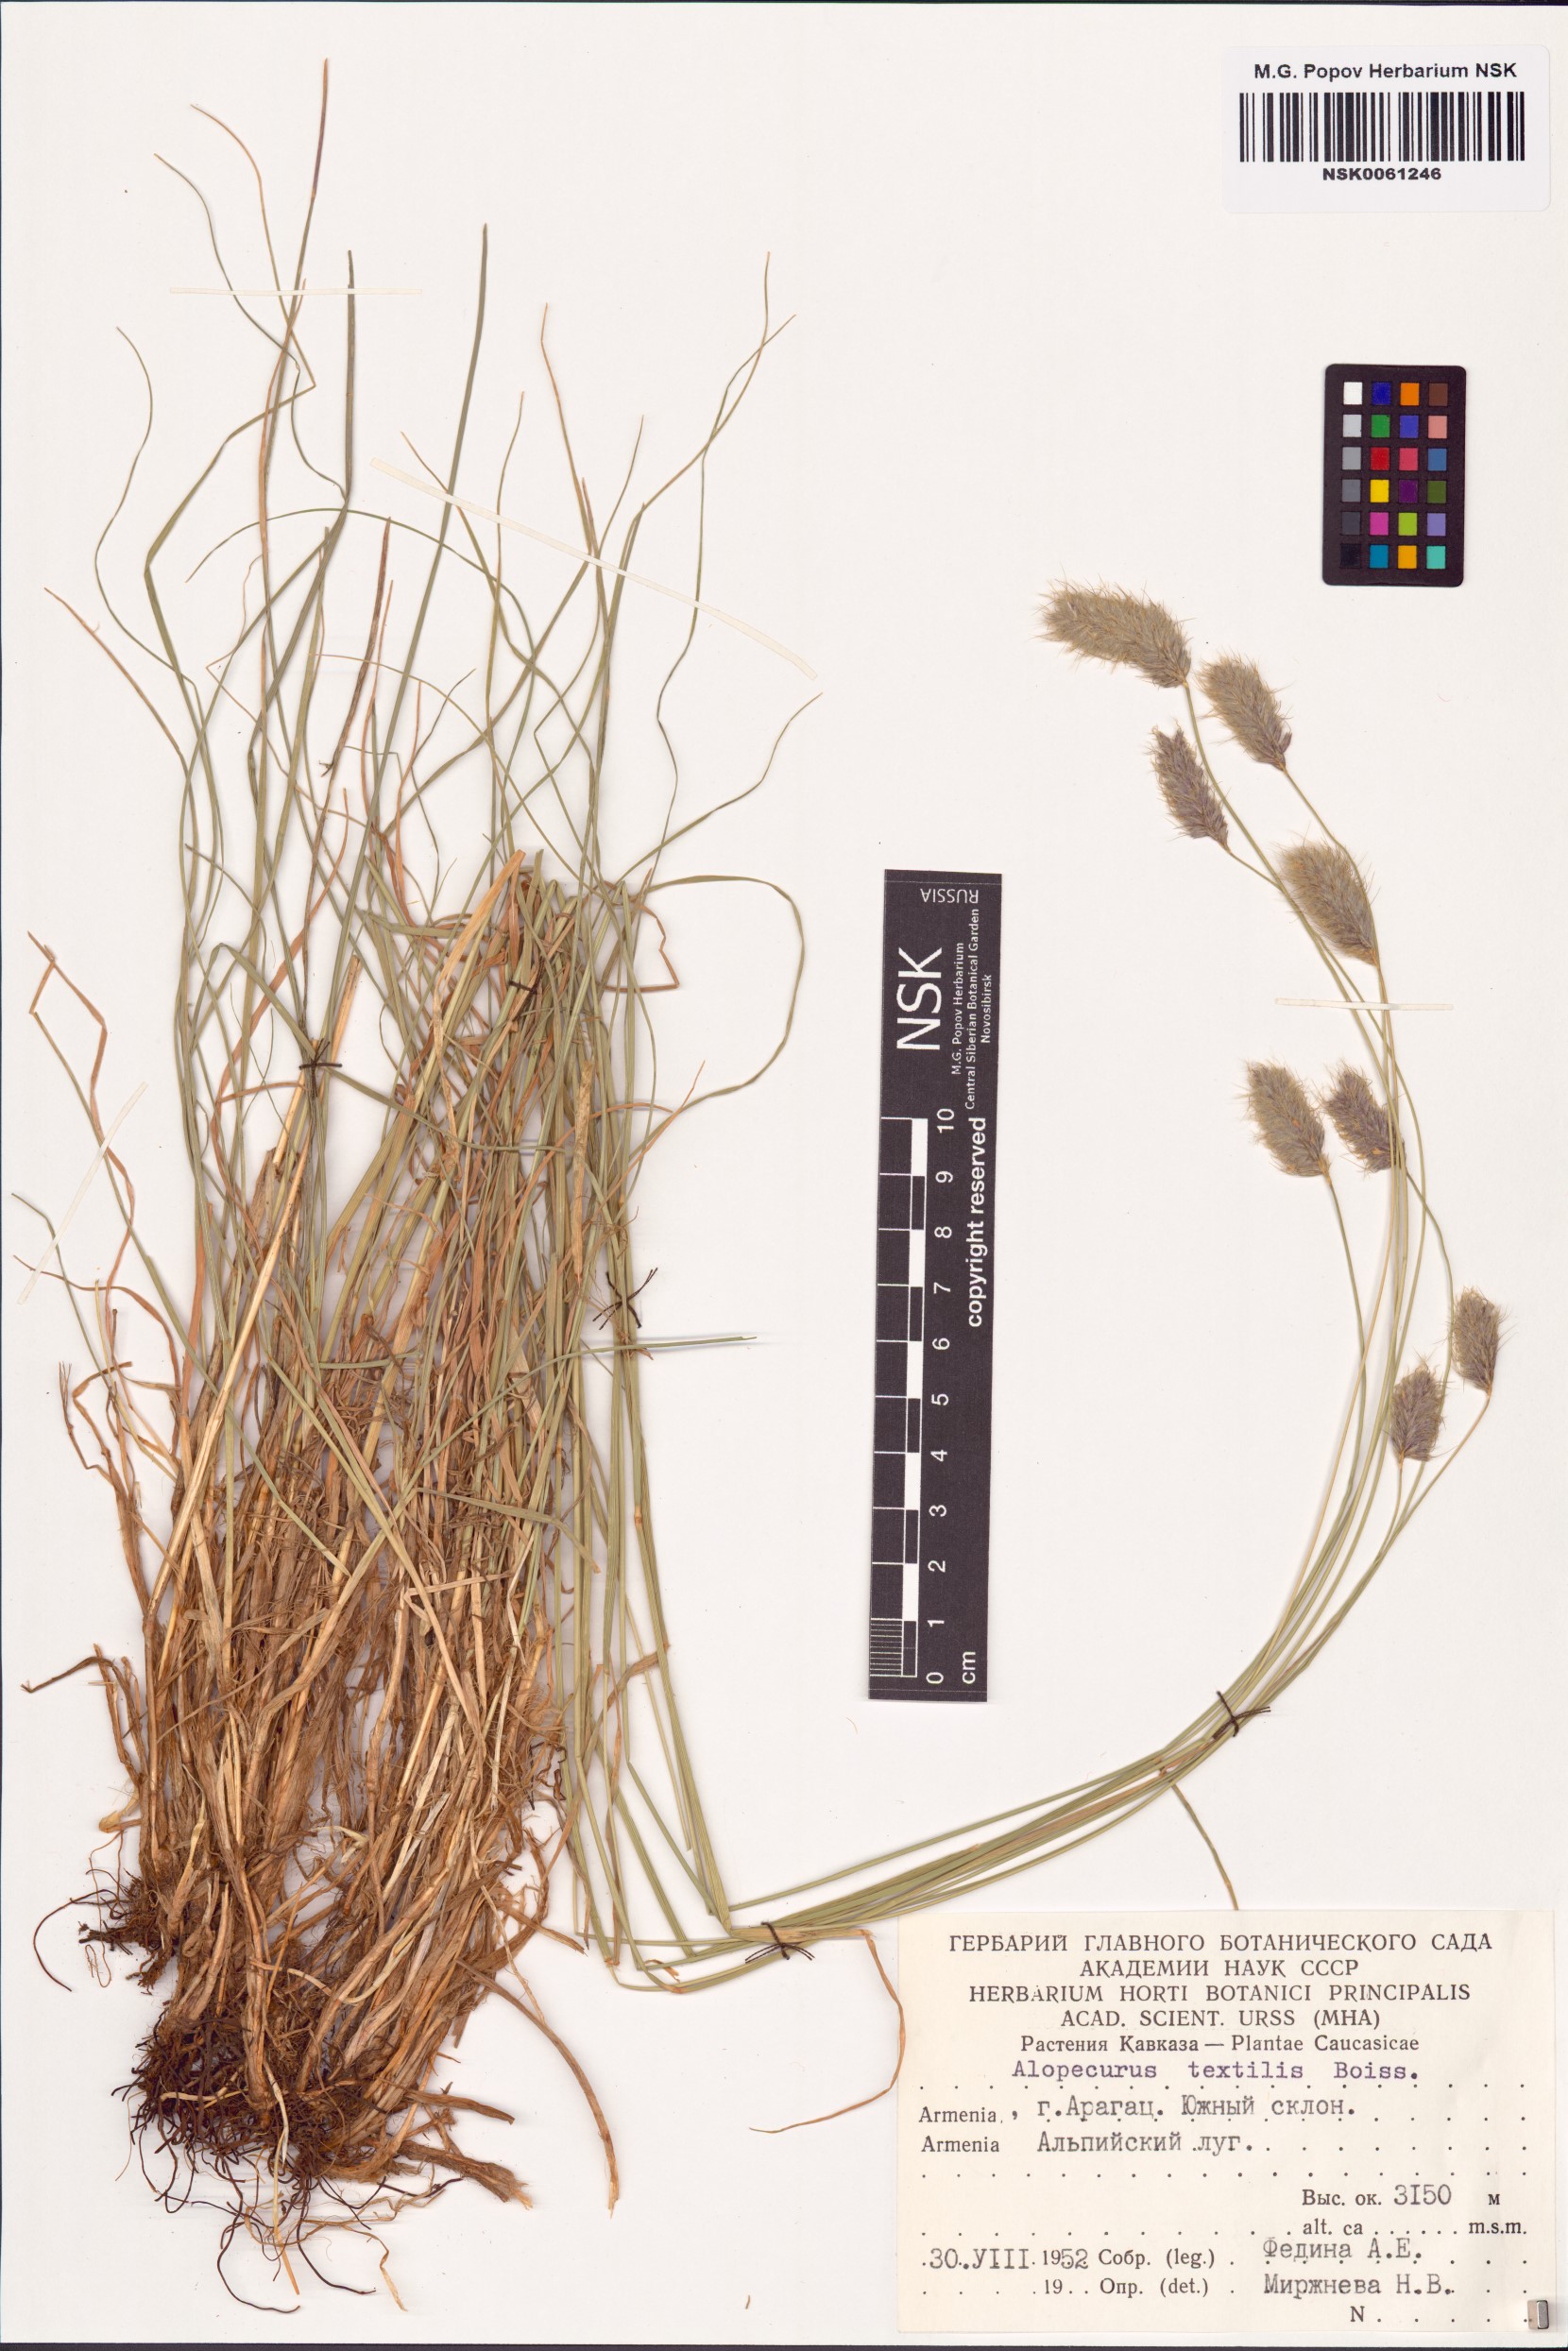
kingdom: Plantae
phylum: Tracheophyta
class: Liliopsida
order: Poales
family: Poaceae
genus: Alopecurus
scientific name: Alopecurus textilis
